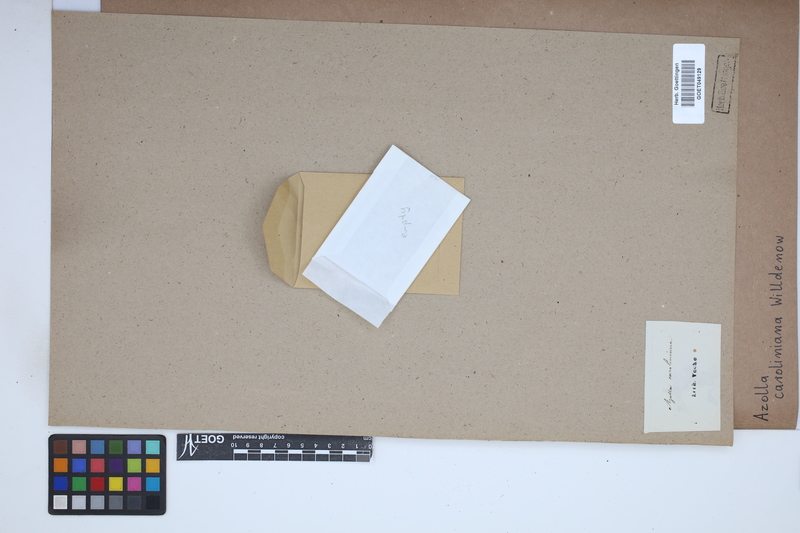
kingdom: Plantae
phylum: Tracheophyta
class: Polypodiopsida
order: Salviniales
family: Salviniaceae
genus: Azolla
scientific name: Azolla caroliniana
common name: Carolina mosquitofern
